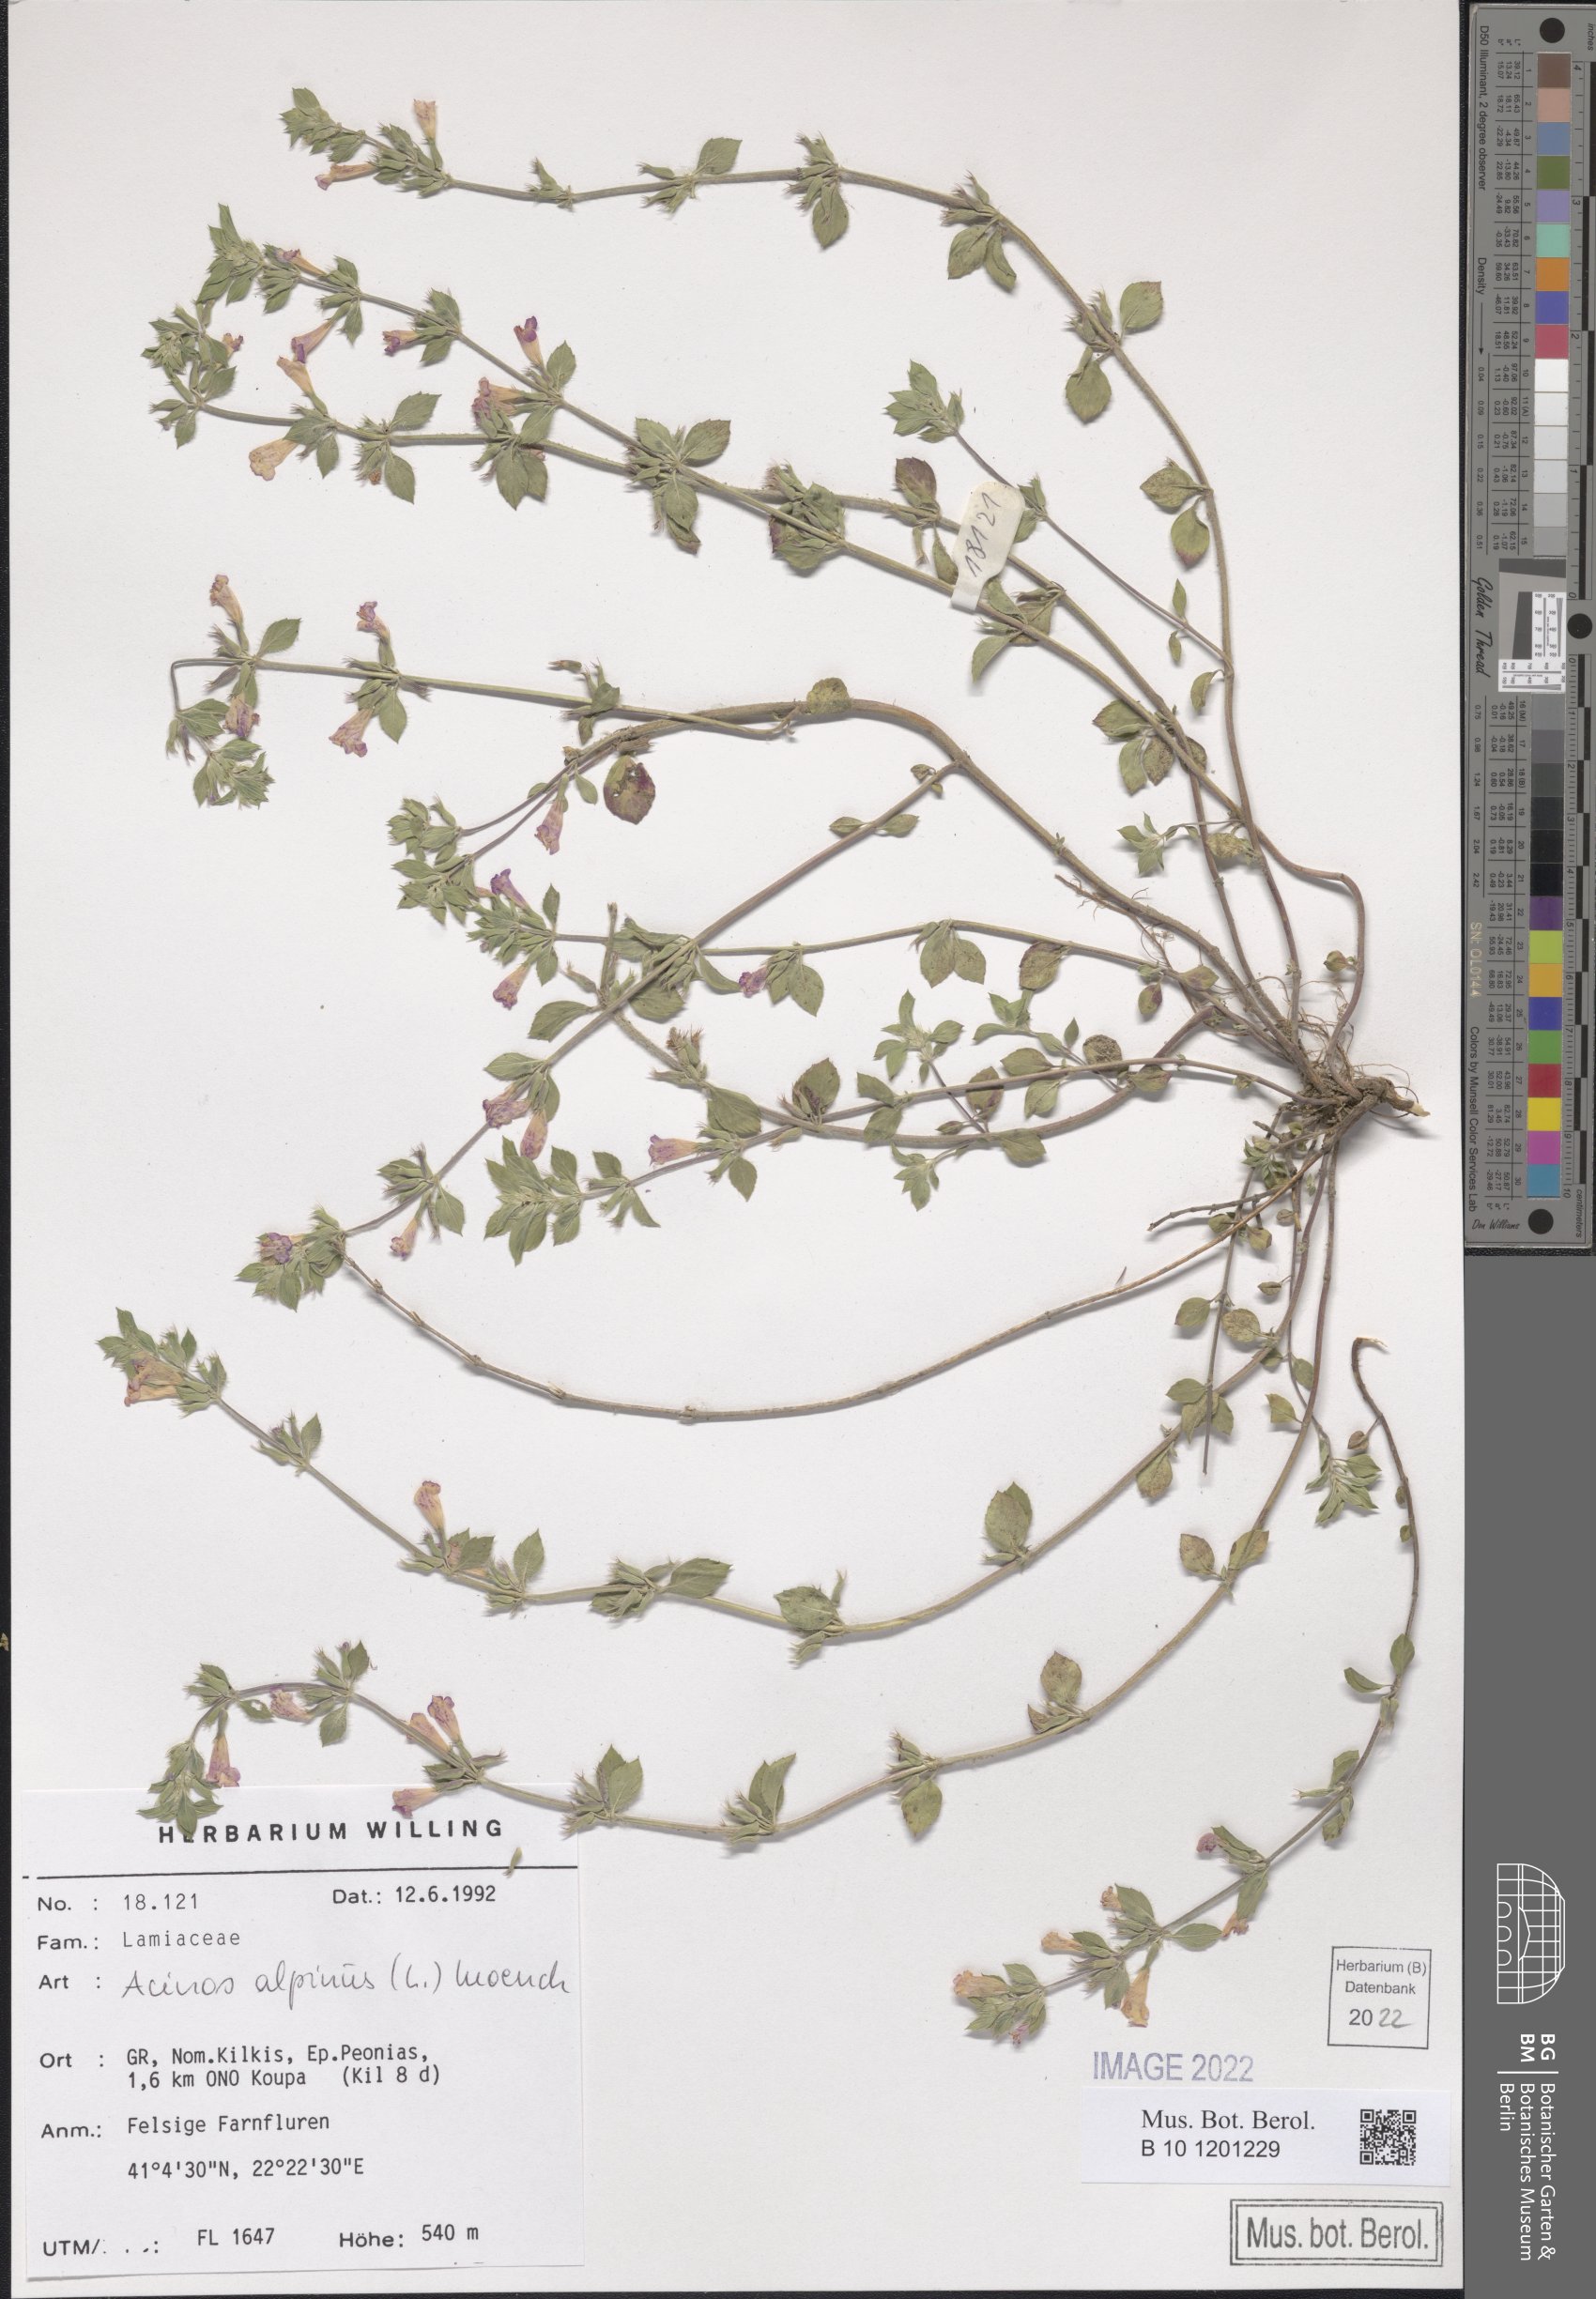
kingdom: Plantae
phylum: Tracheophyta
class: Magnoliopsida
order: Lamiales
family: Lamiaceae
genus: Clinopodium
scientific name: Clinopodium alpinum
